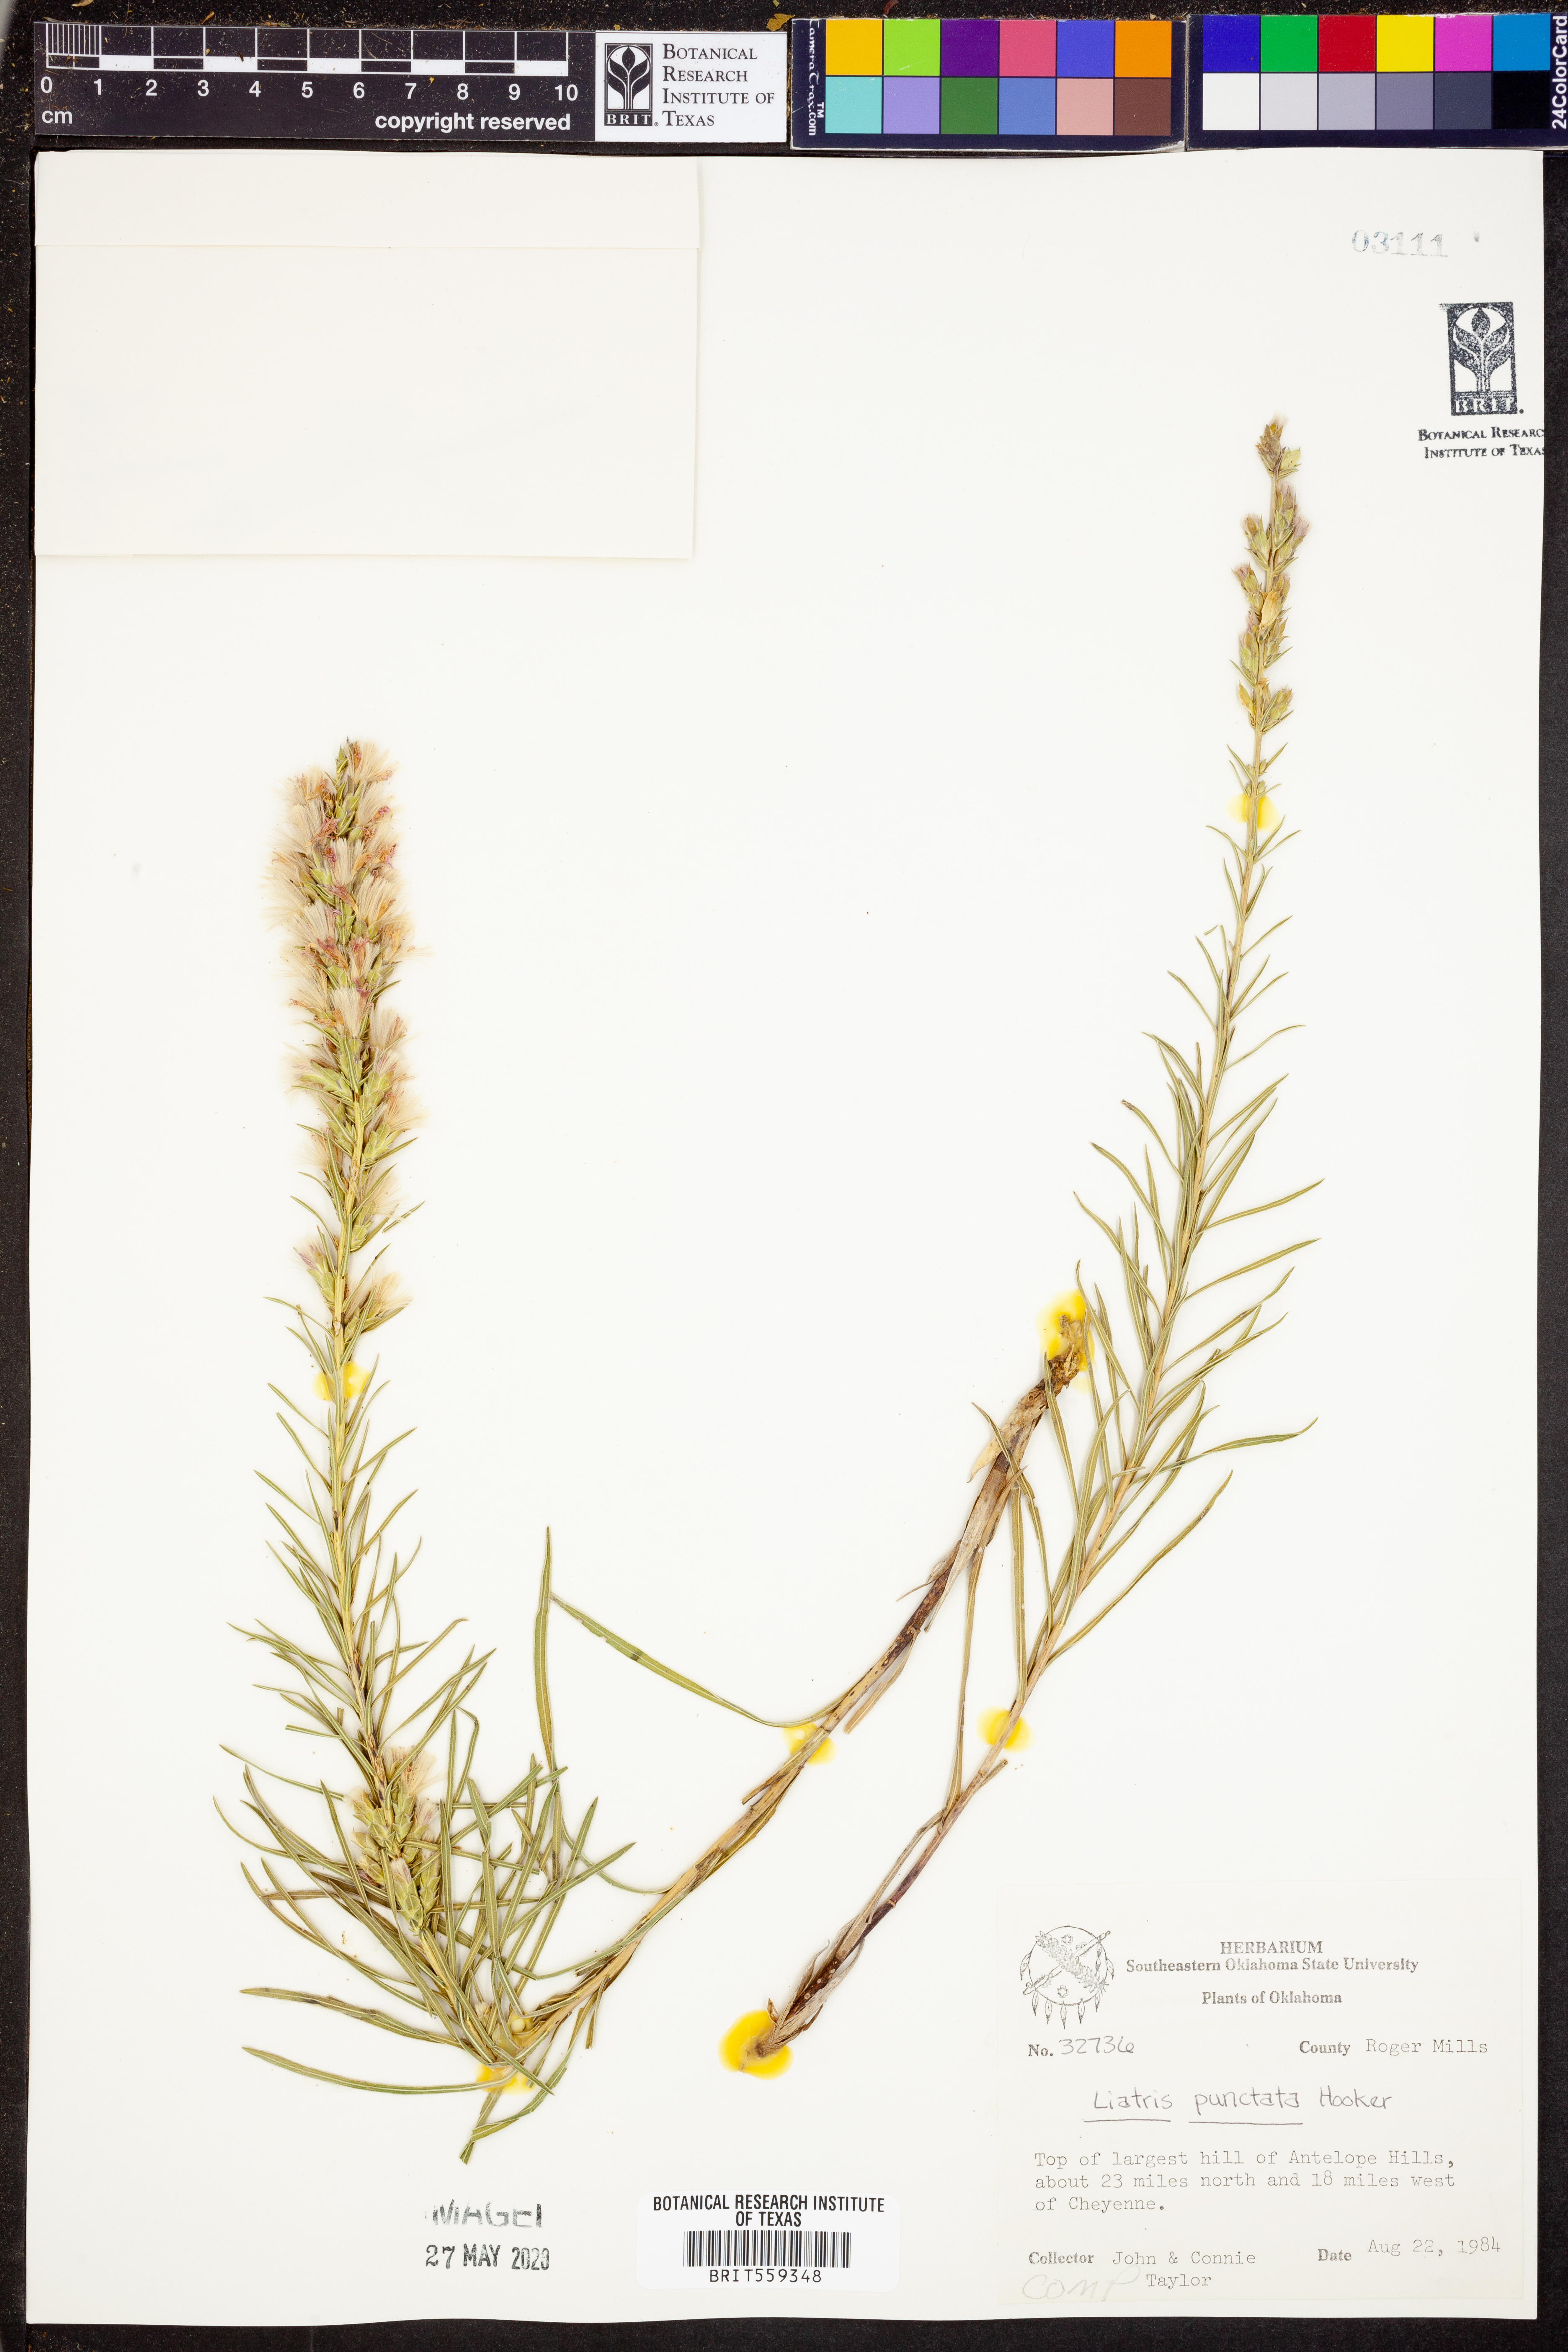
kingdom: Plantae
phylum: Tracheophyta
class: Magnoliopsida
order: Asterales
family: Asteraceae
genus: Liatris
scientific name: Liatris punctata
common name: Dotted gayfeather
